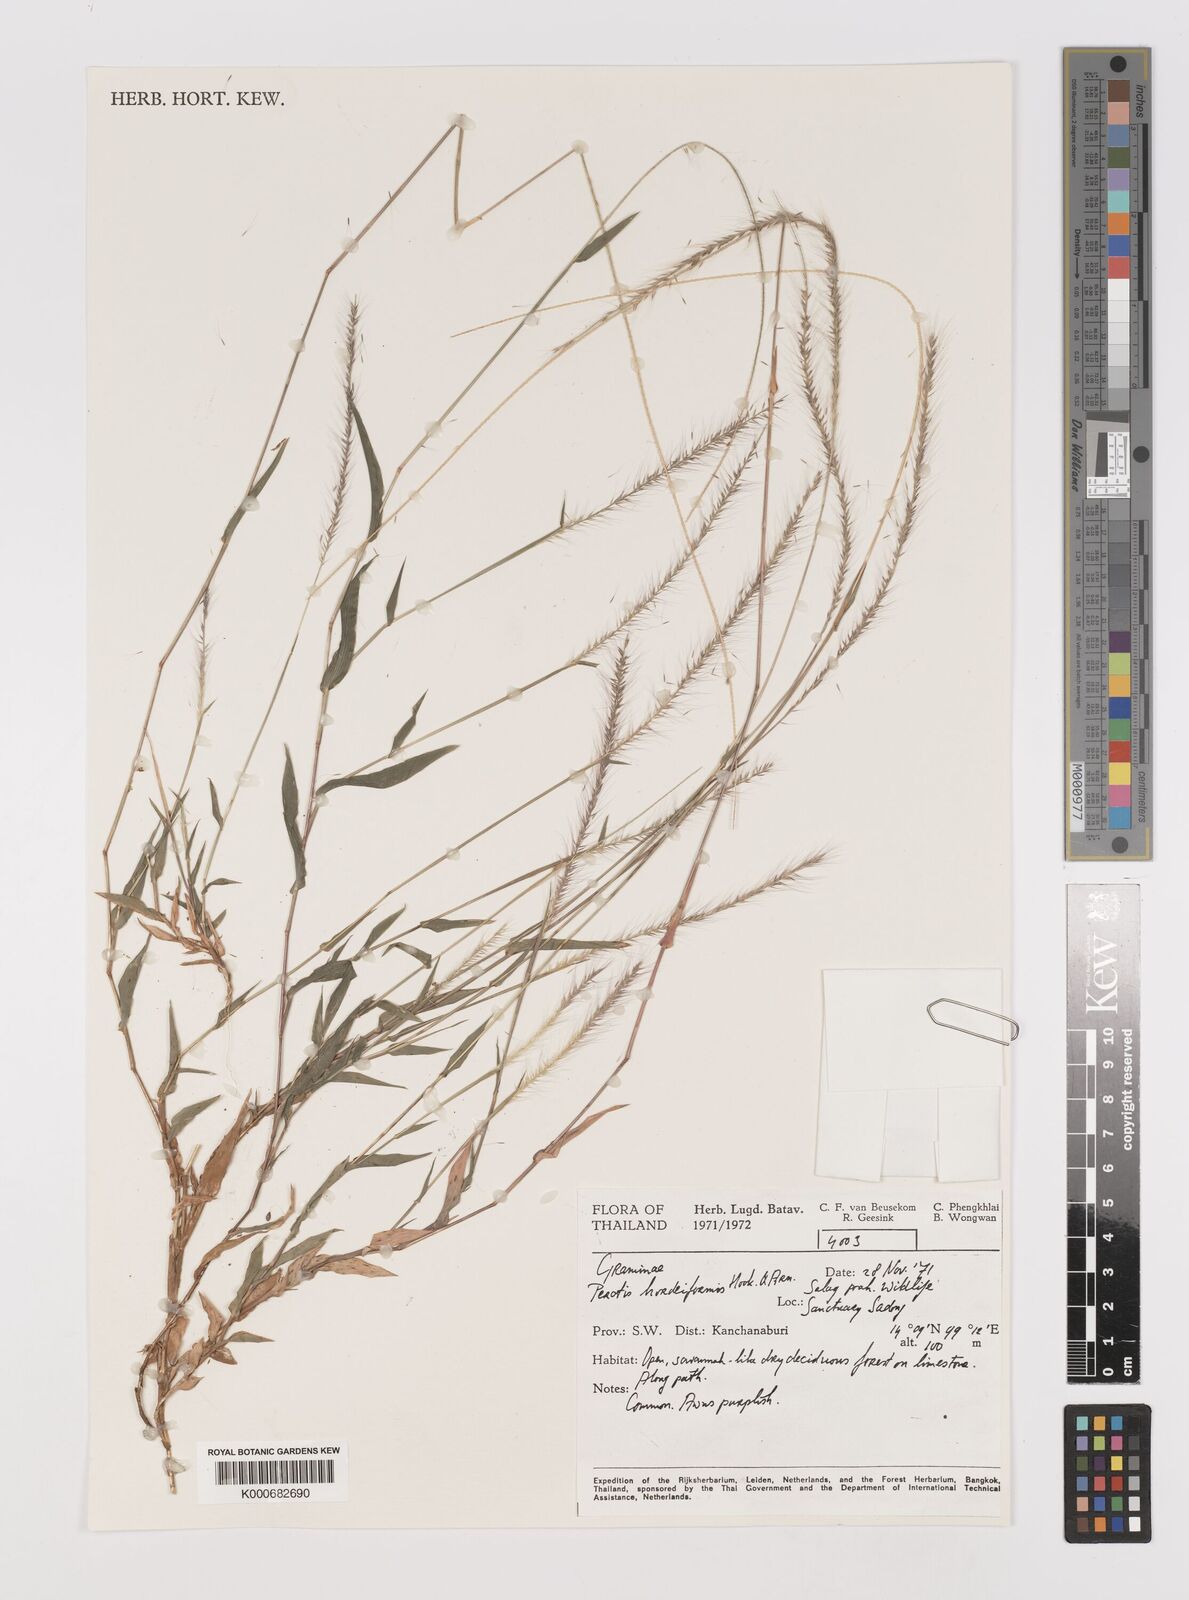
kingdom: Plantae
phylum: Tracheophyta
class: Liliopsida
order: Poales
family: Poaceae
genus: Perotis
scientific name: Perotis hordeiformis
